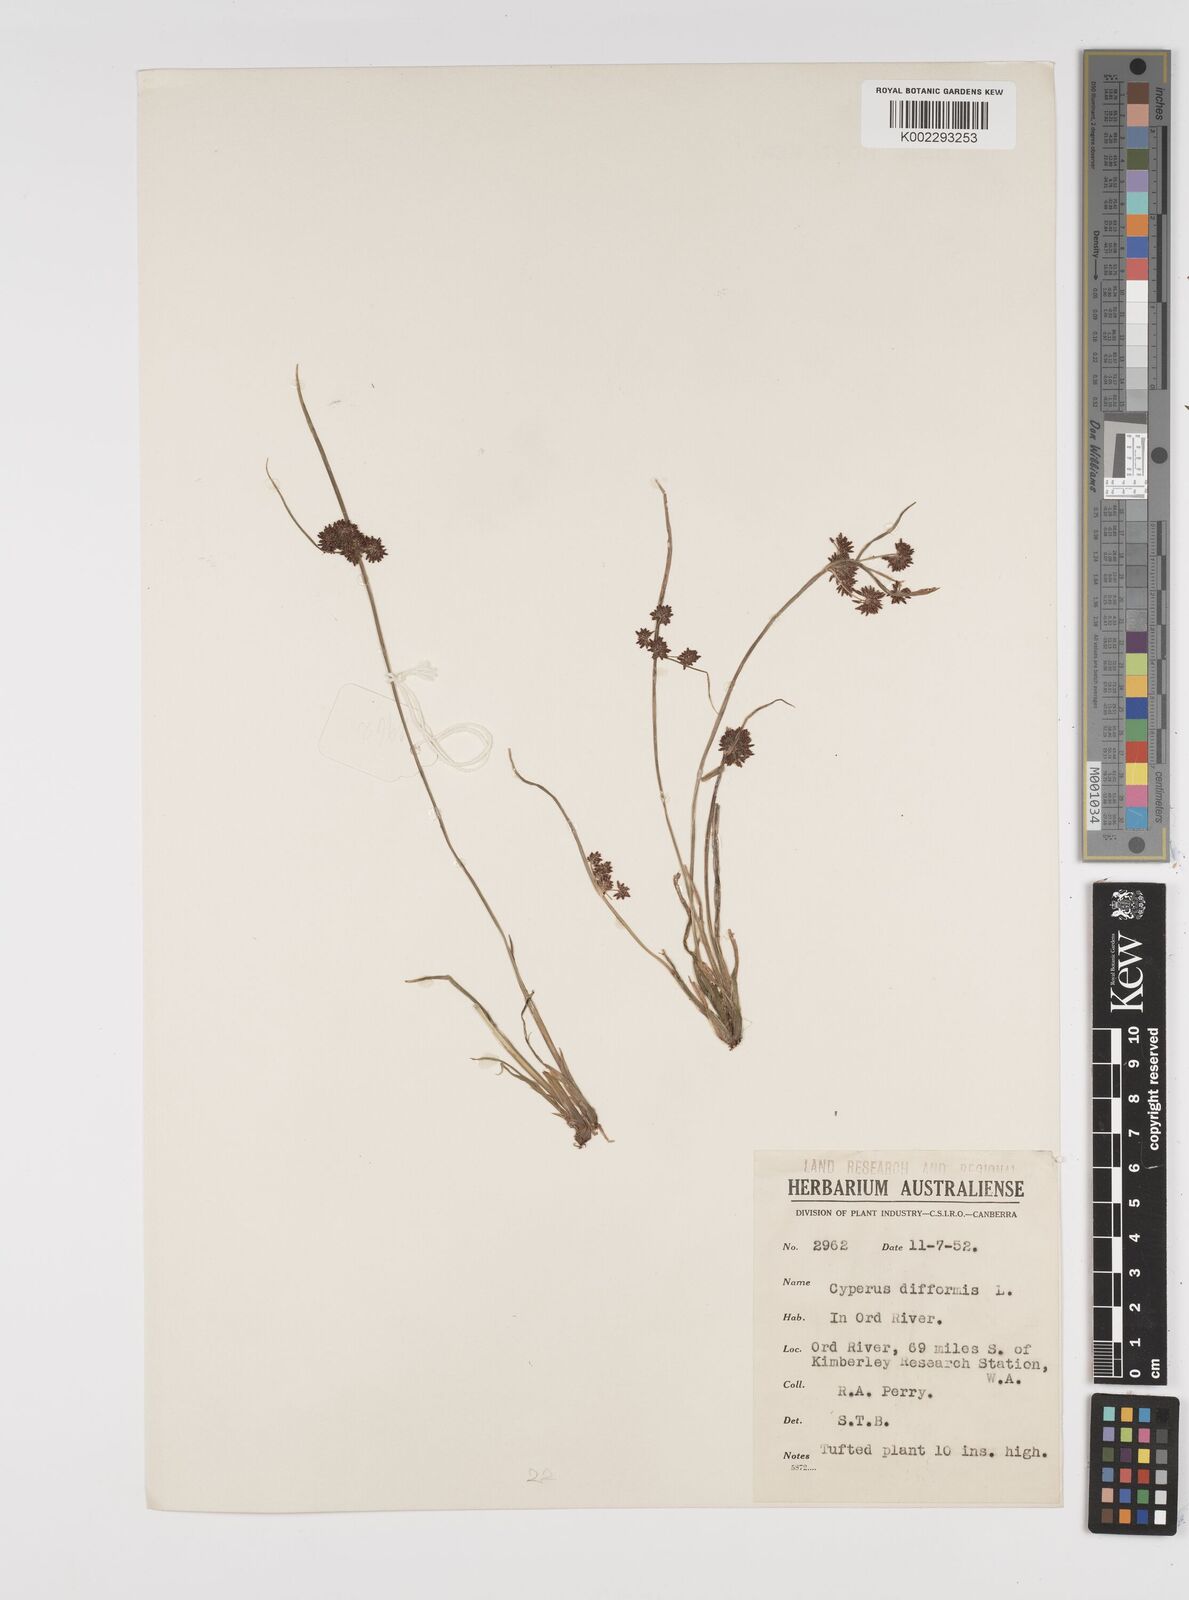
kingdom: Plantae
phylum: Tracheophyta
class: Liliopsida
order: Poales
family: Cyperaceae
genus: Cyperus
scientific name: Cyperus difformis
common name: Variable flatsedge
